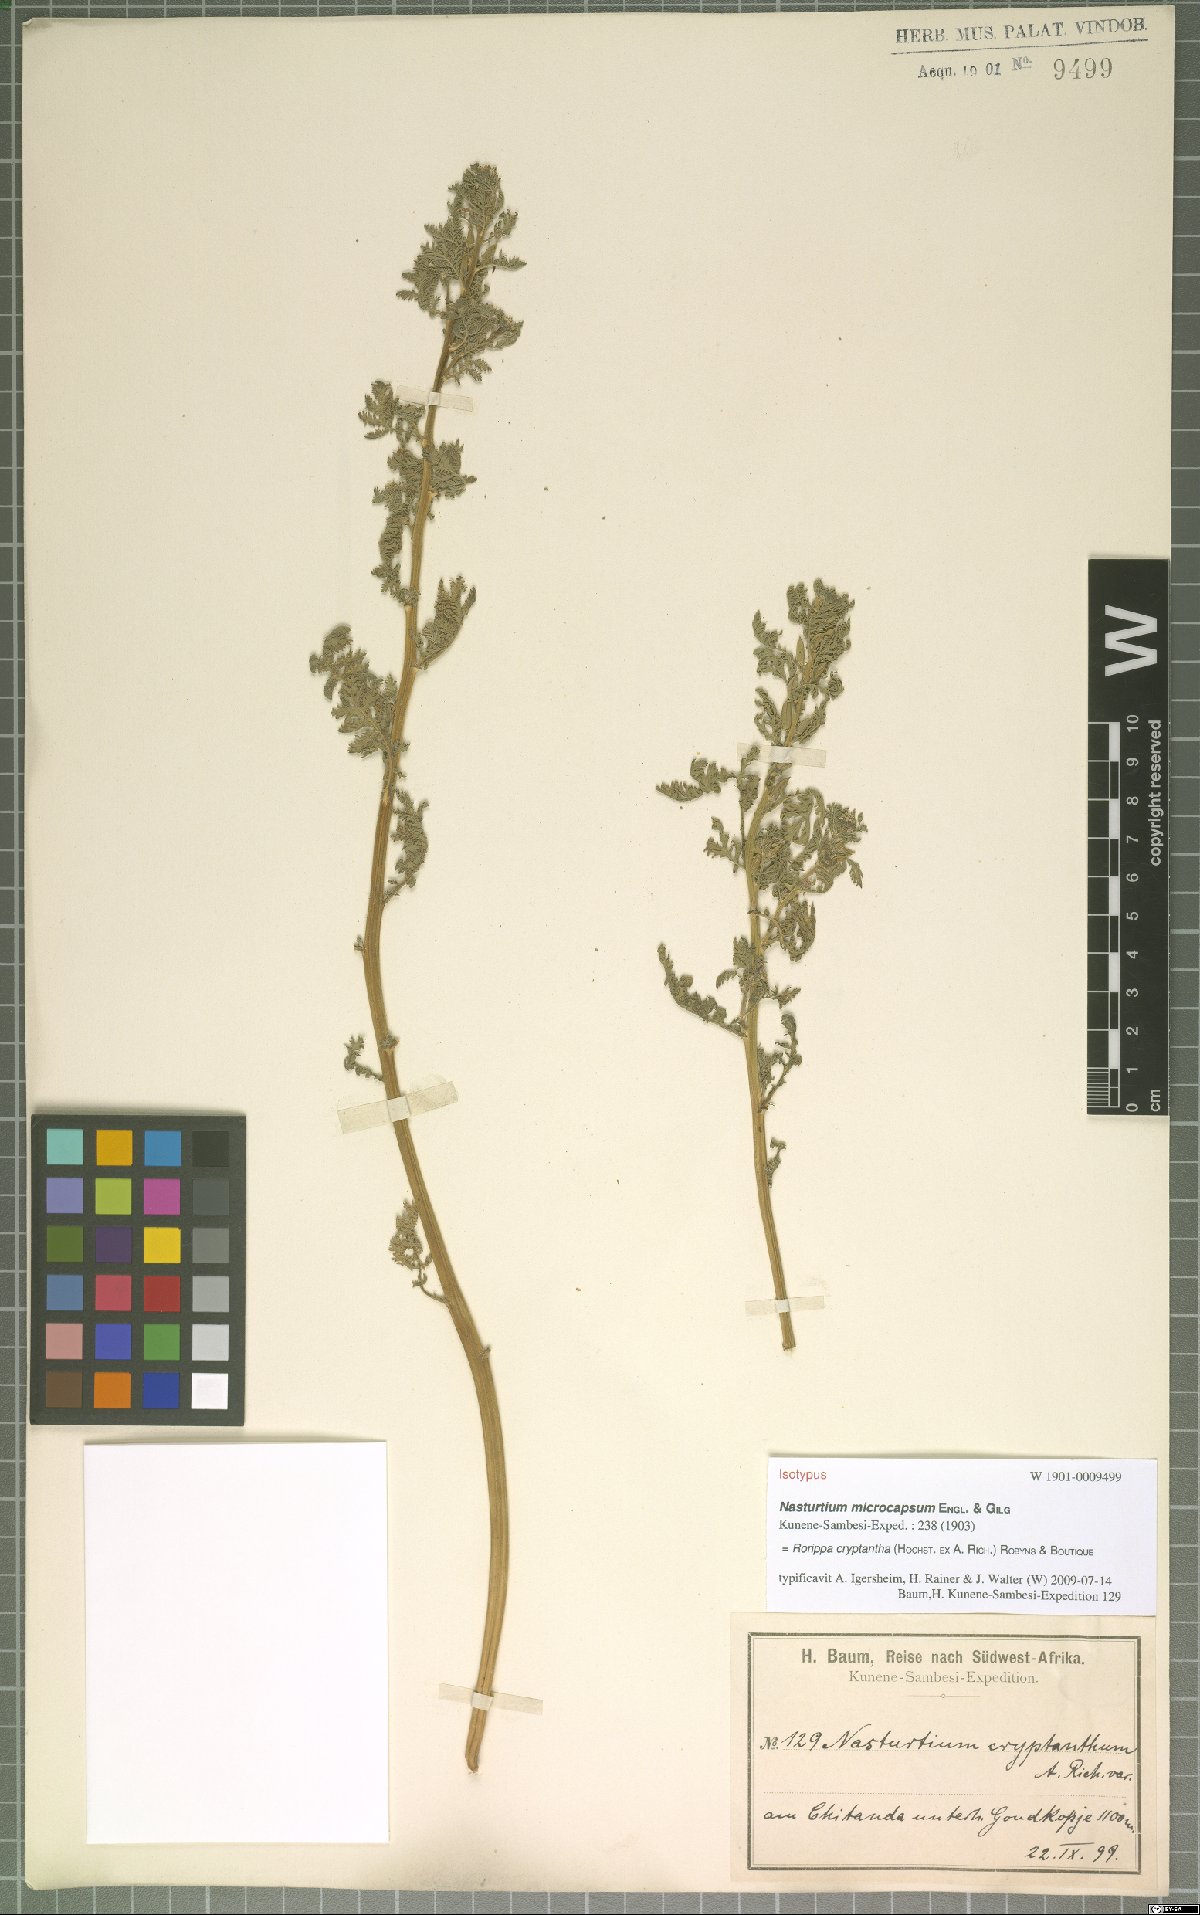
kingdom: Plantae
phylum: Tracheophyta
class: Magnoliopsida
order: Brassicales
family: Brassicaceae
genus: Rorippa
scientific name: Rorippa cryptantha
